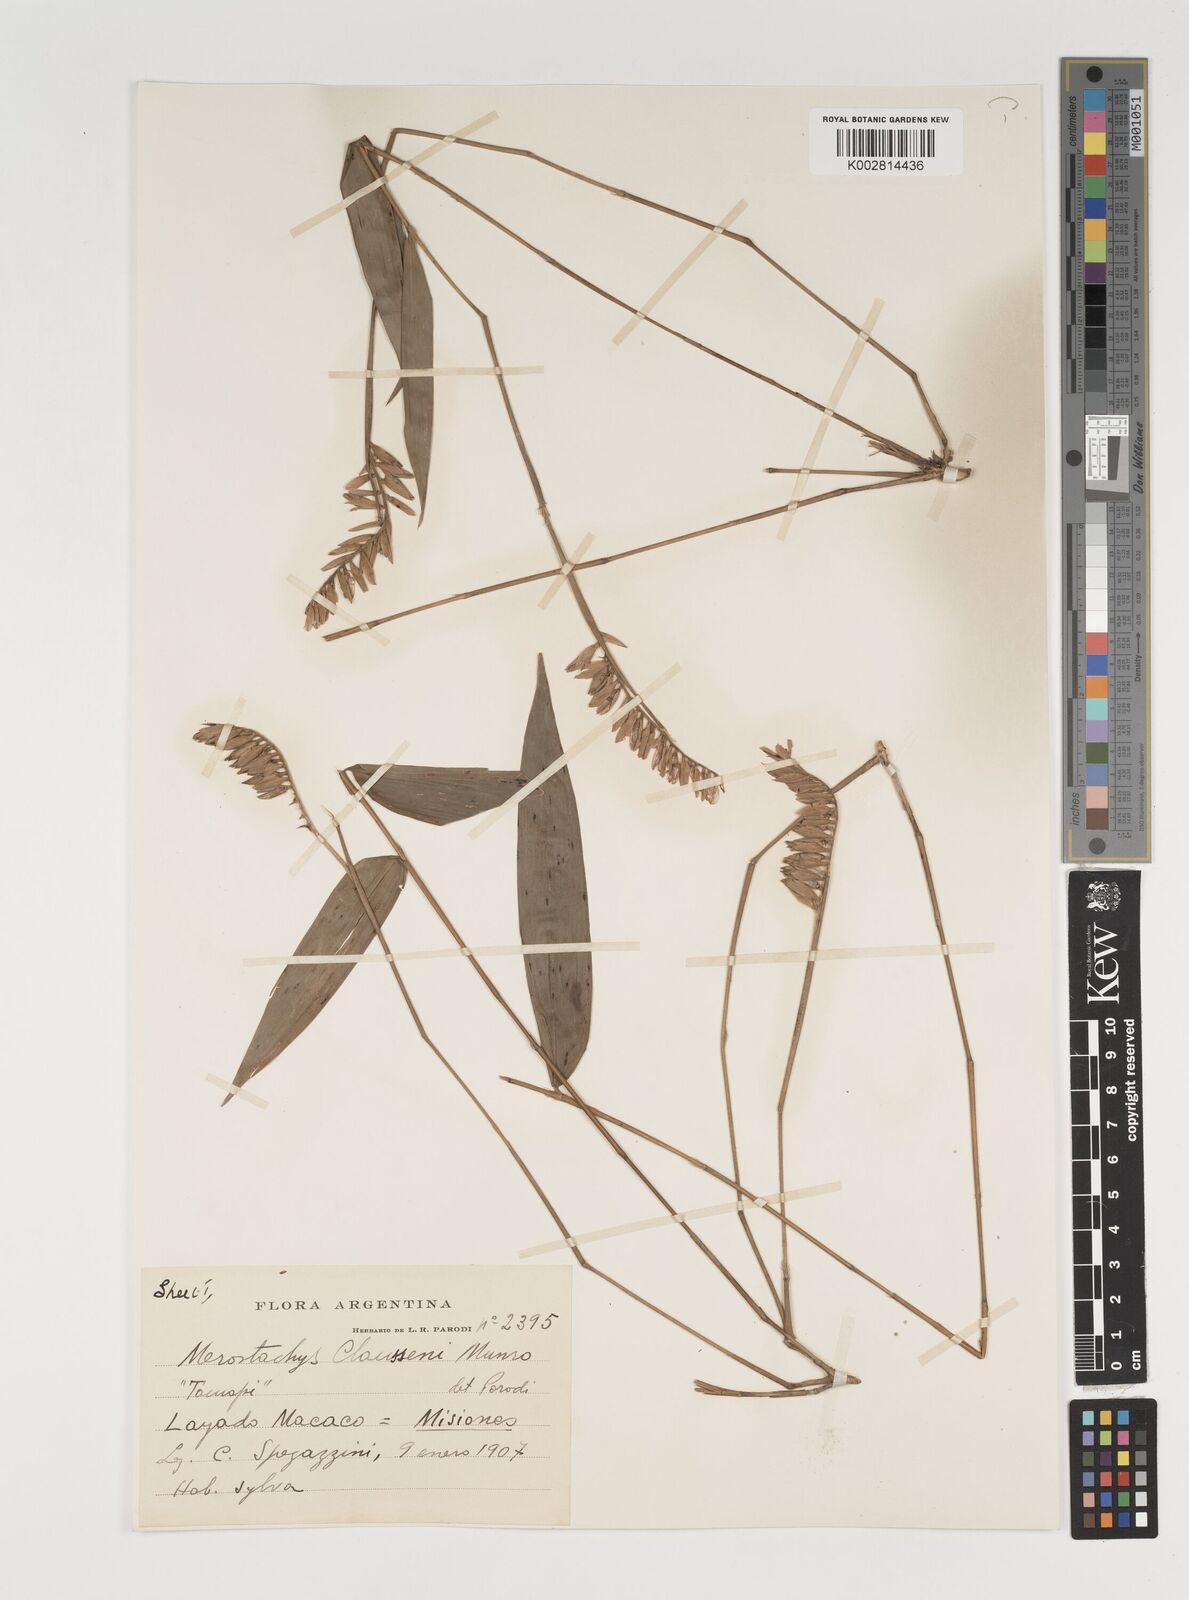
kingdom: Plantae
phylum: Tracheophyta
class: Liliopsida
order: Poales
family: Poaceae
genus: Merostachys
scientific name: Merostachys claussenii
